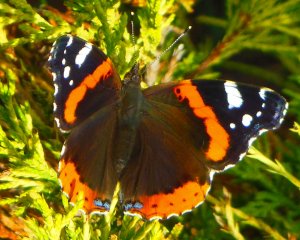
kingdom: Animalia
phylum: Arthropoda
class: Insecta
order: Lepidoptera
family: Nymphalidae
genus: Vanessa
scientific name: Vanessa atalanta
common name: Red Admiral
